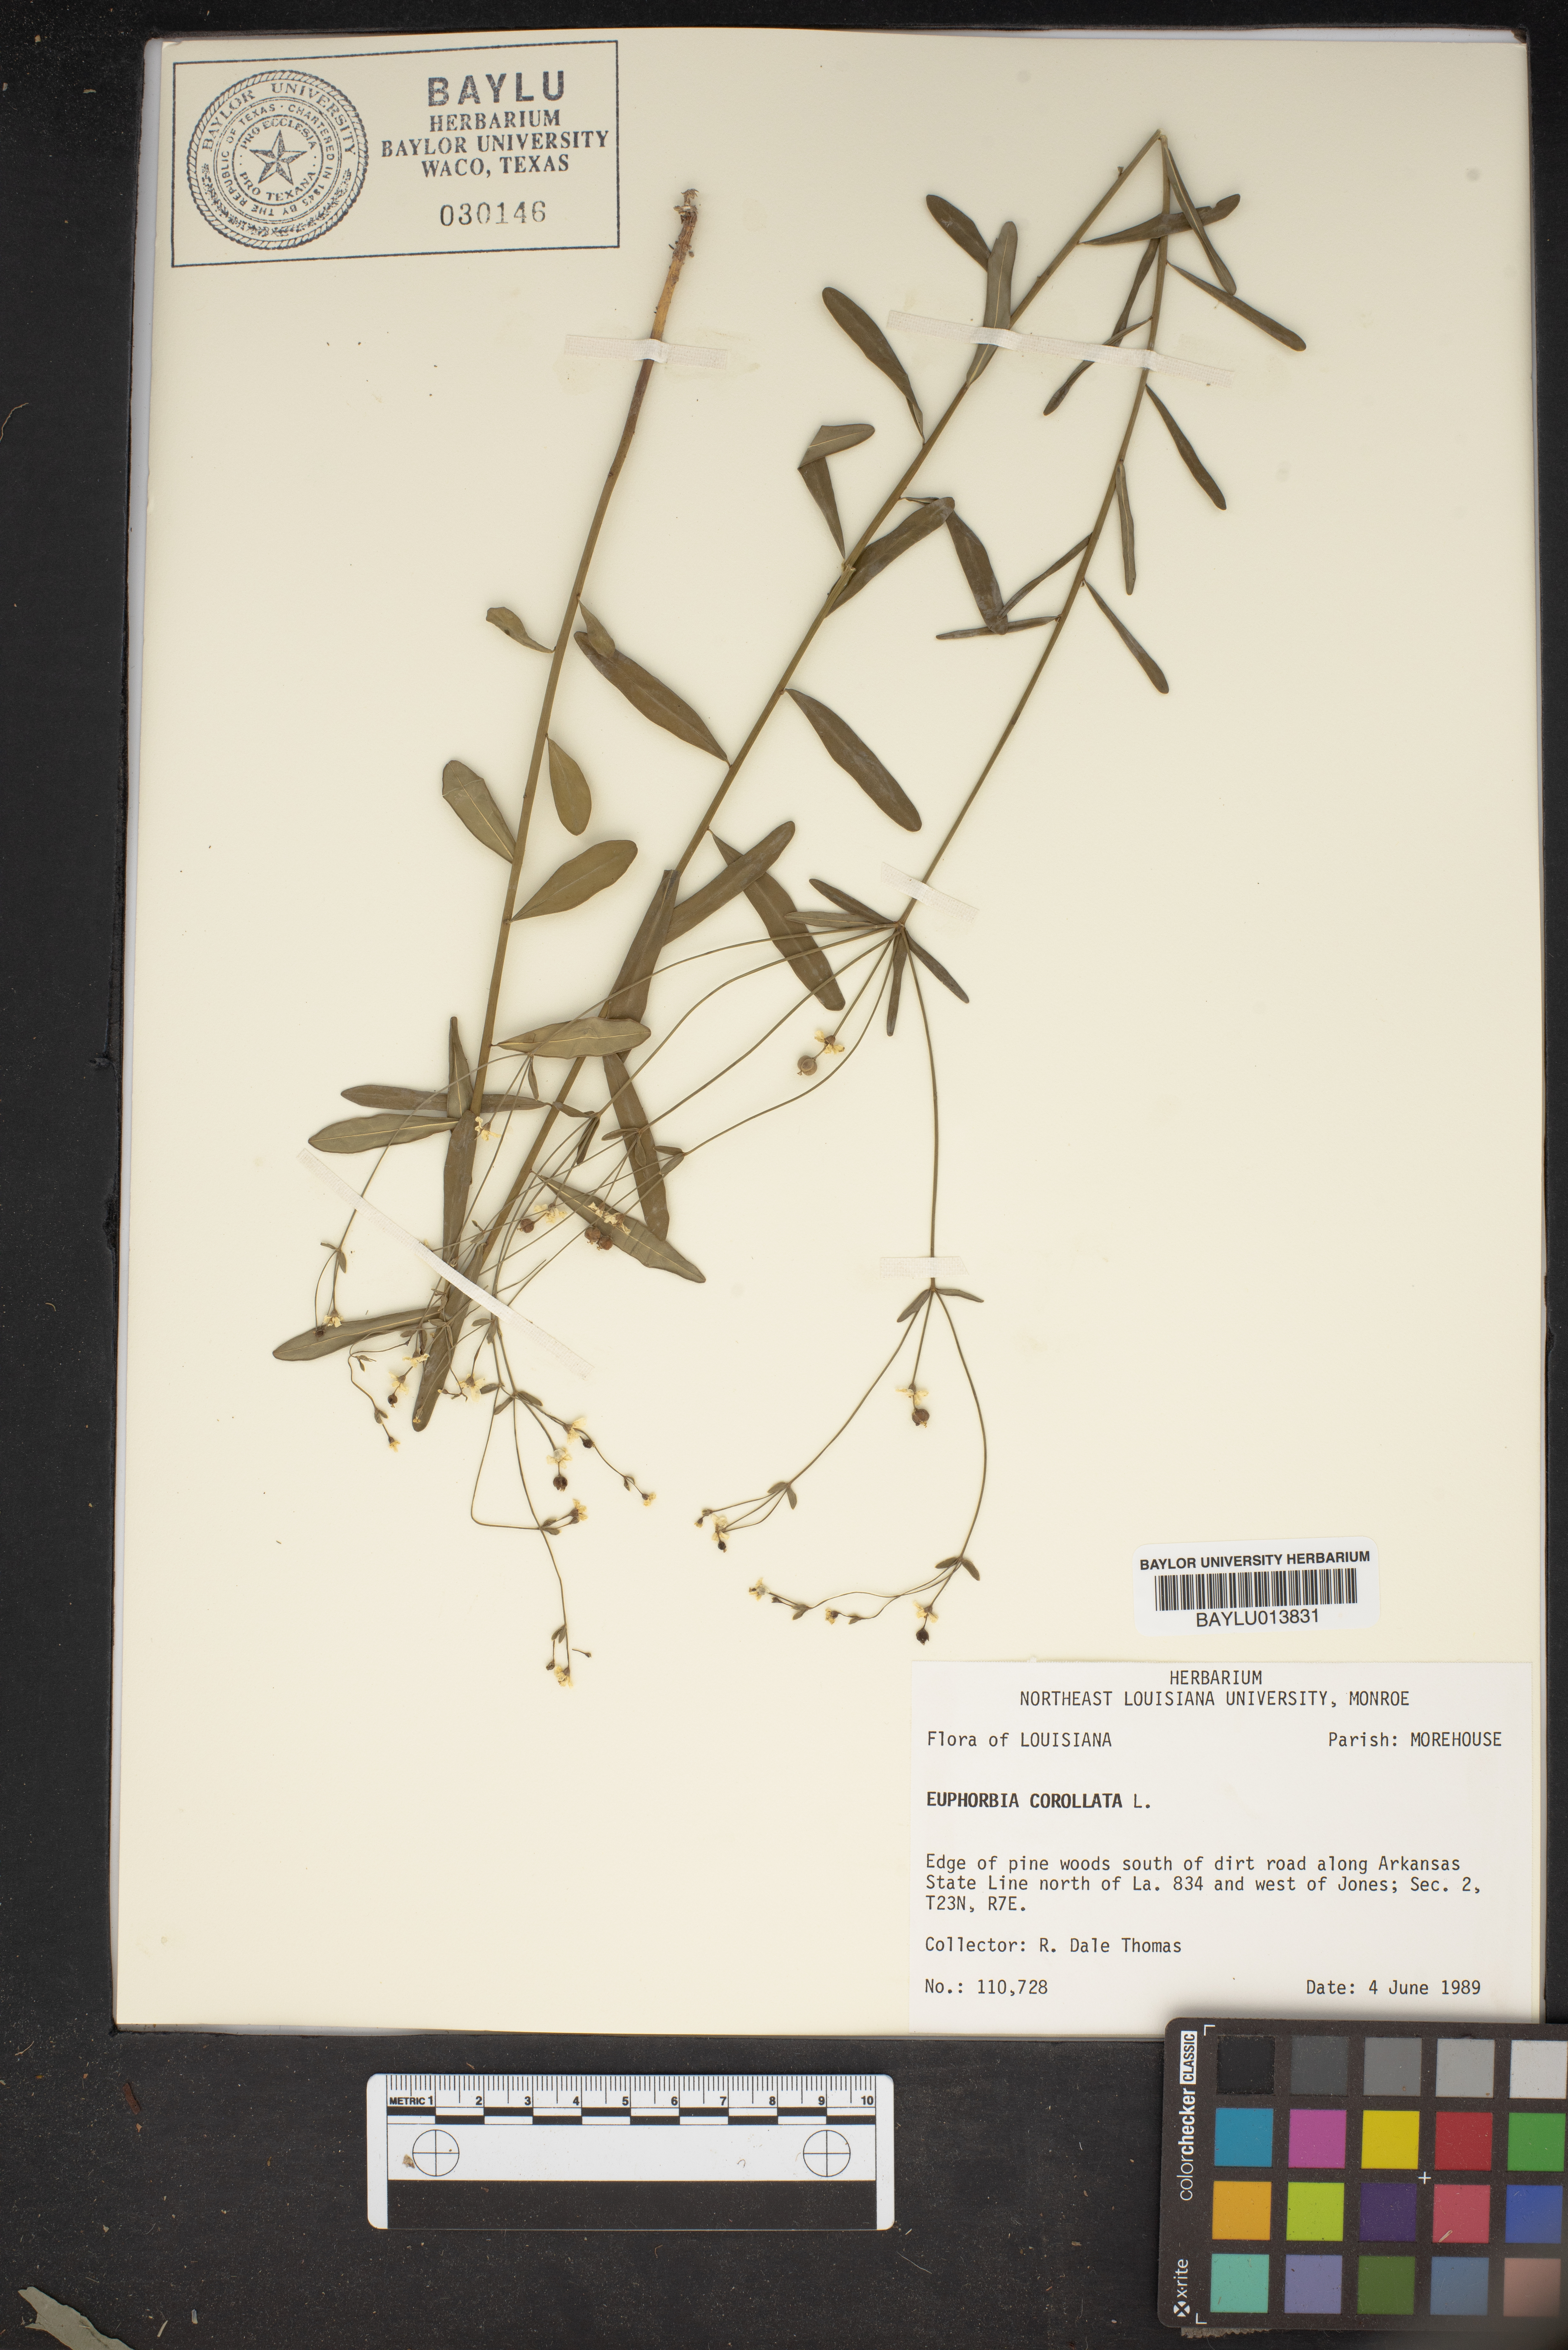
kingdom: Plantae
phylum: Tracheophyta
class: Magnoliopsida
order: Malpighiales
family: Euphorbiaceae
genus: Euphorbia
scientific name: Euphorbia corollata
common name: Flowering spurge
